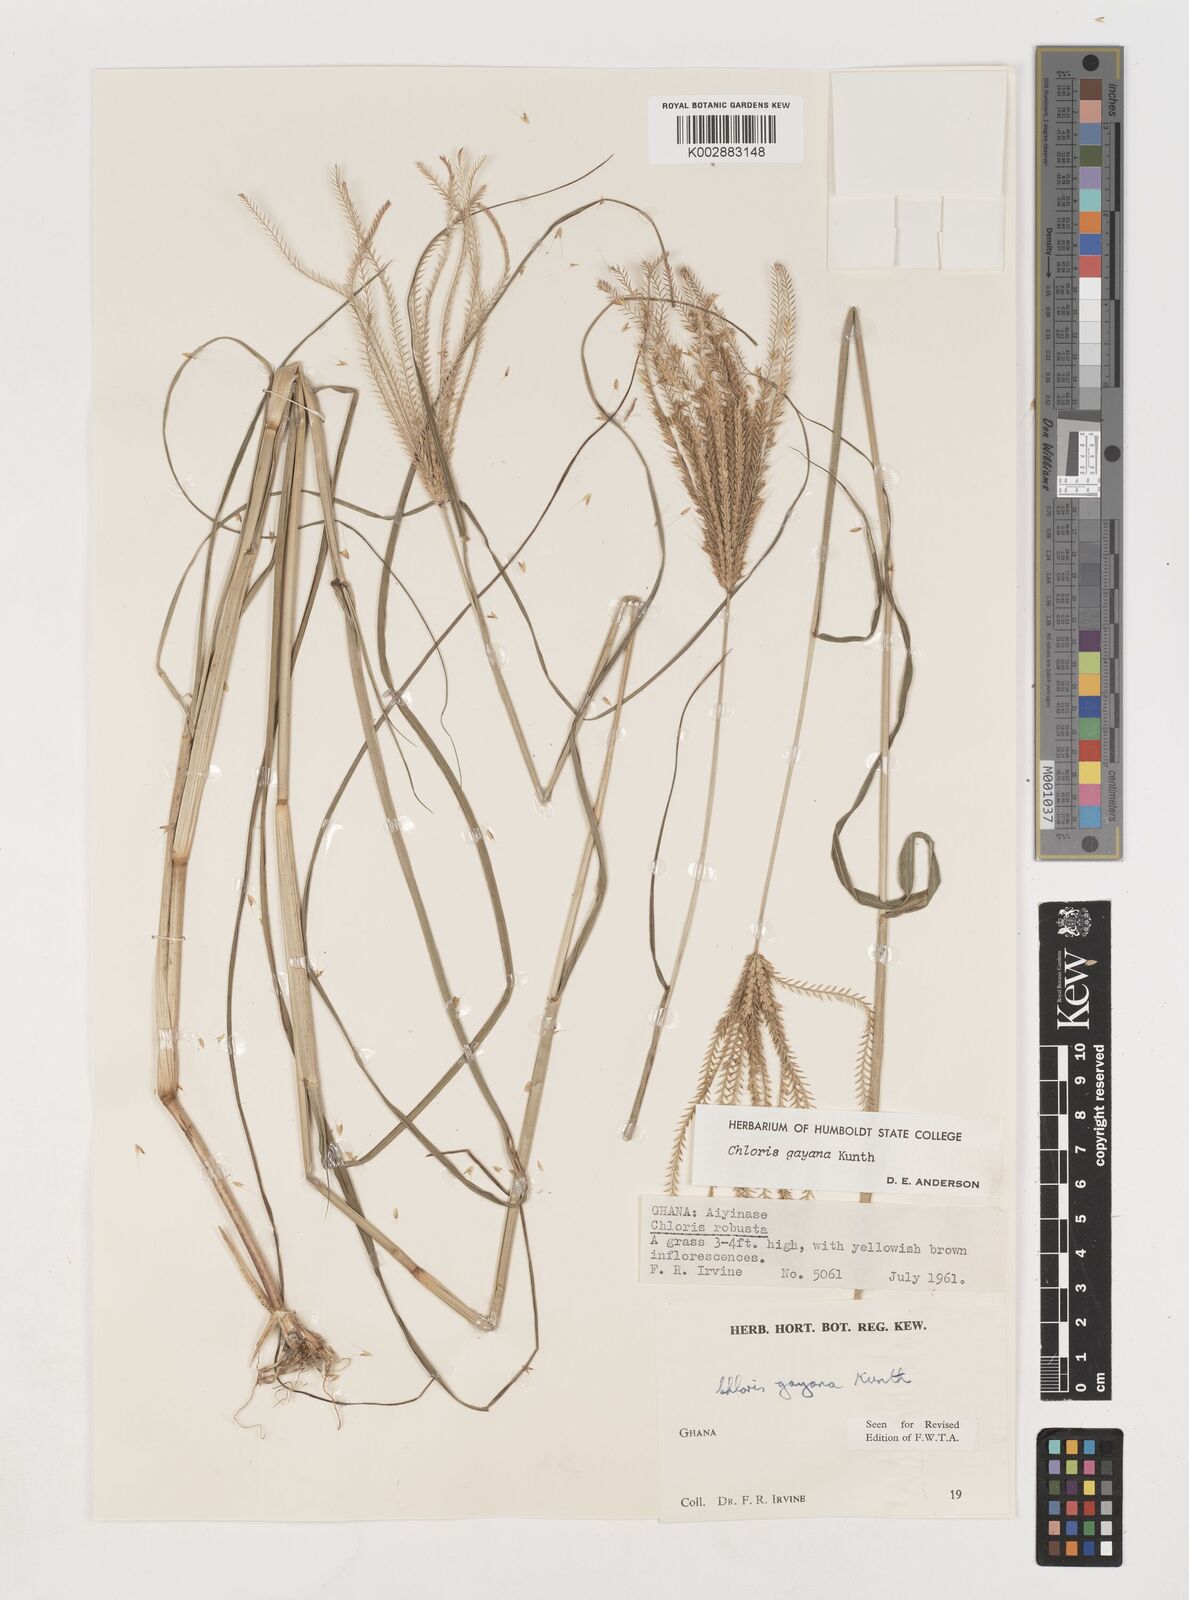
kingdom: Plantae
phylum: Tracheophyta
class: Liliopsida
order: Poales
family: Poaceae
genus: Chloris
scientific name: Chloris gayana
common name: Rhodes grass
